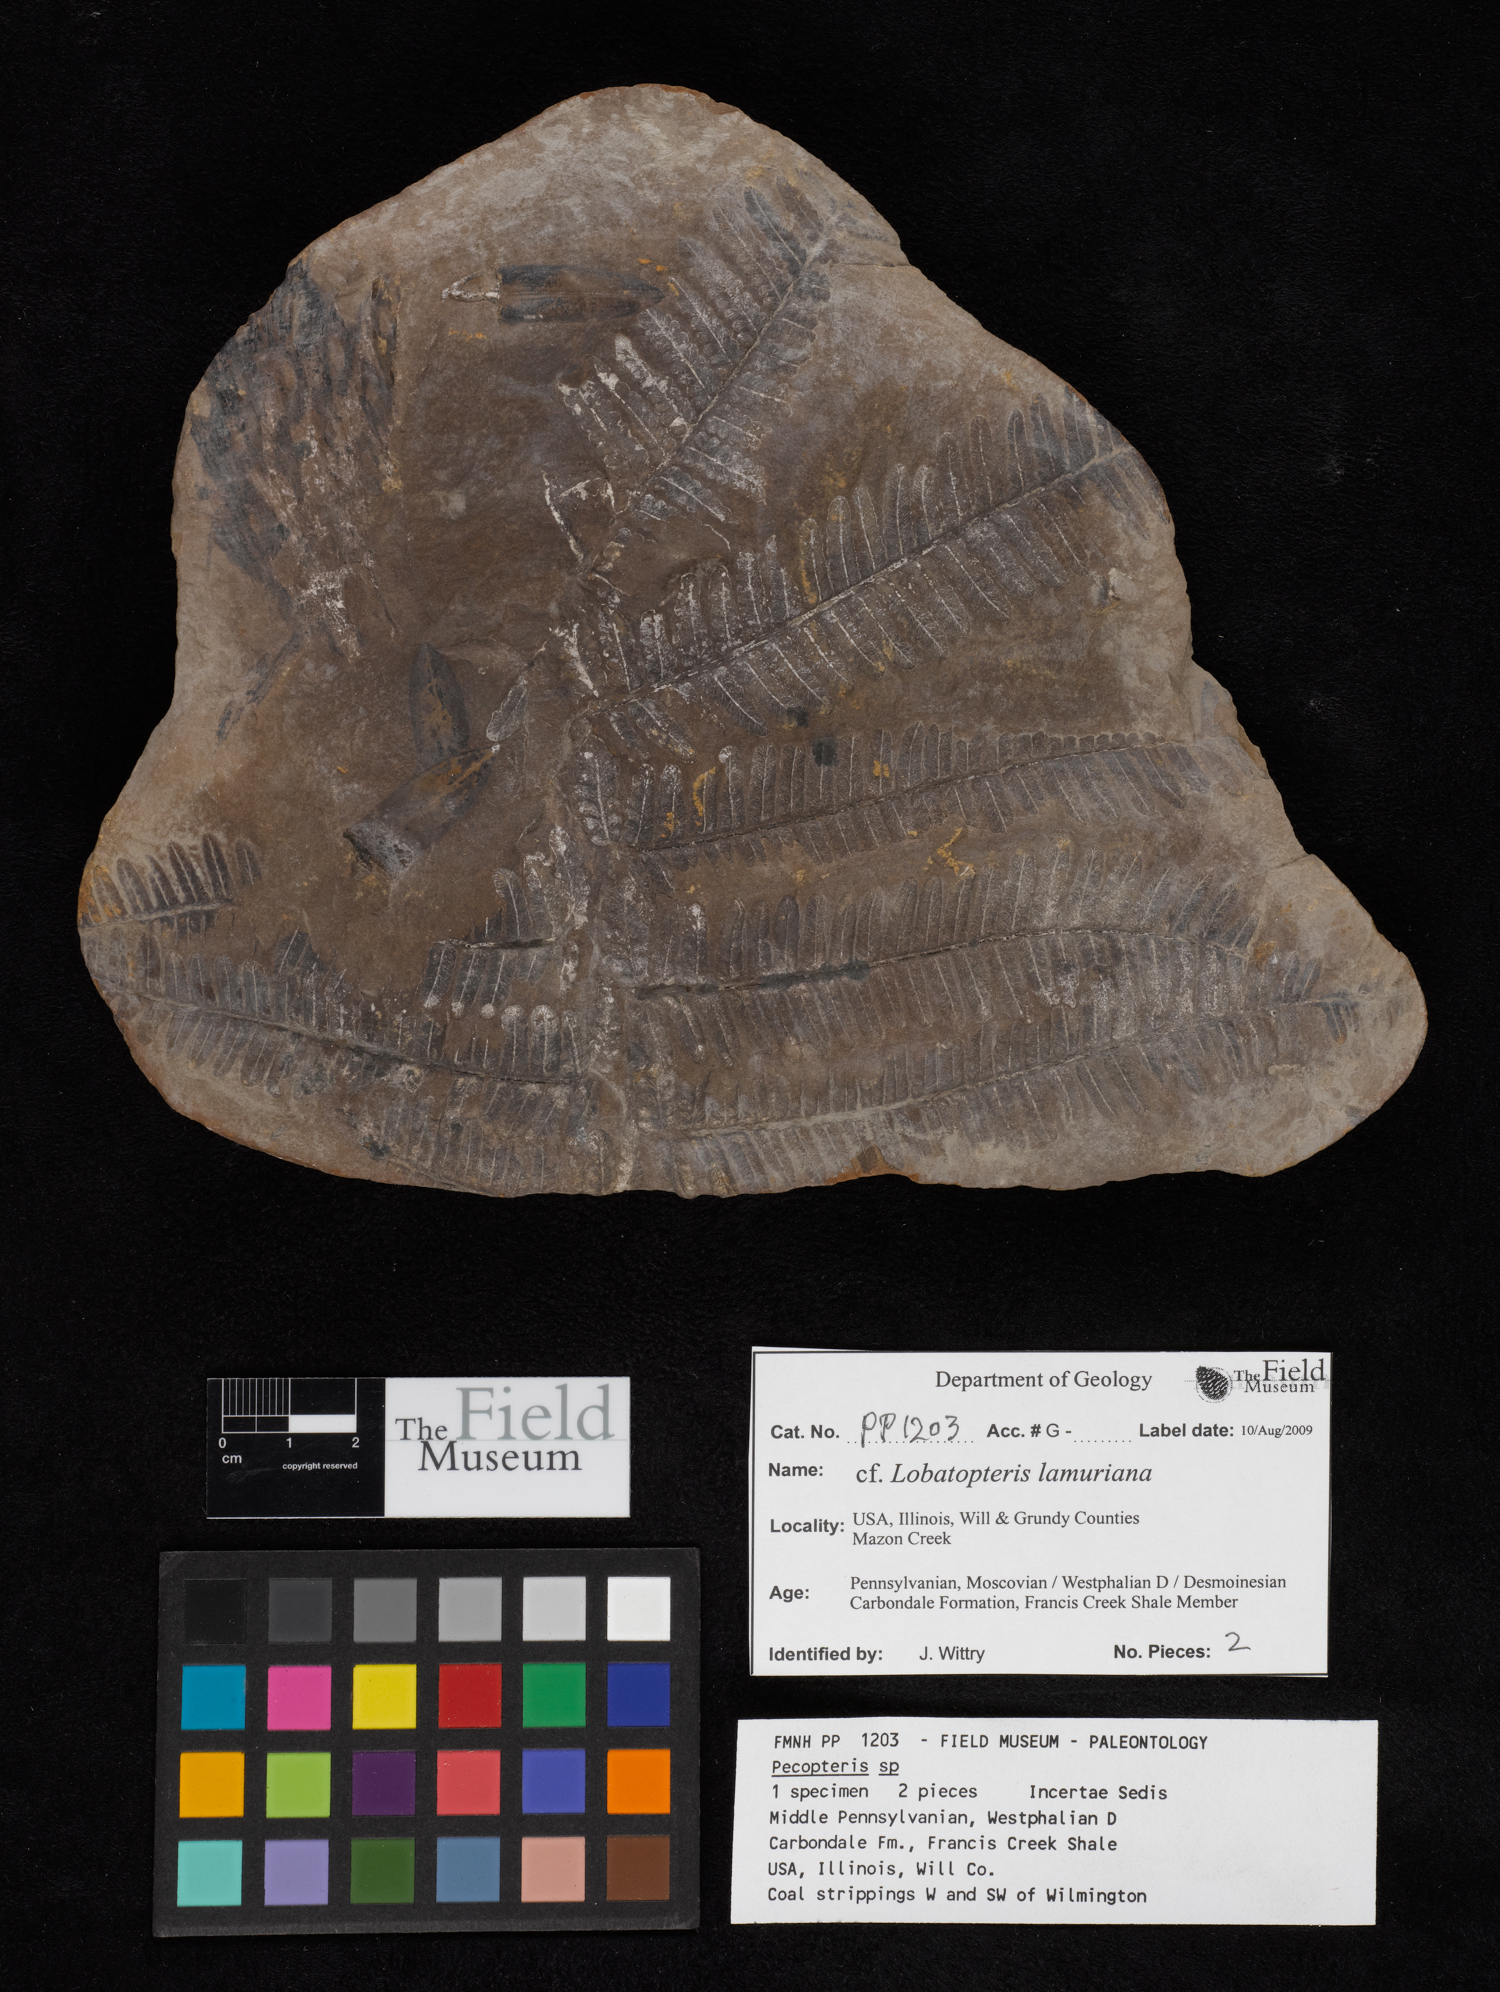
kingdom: Plantae
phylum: Tracheophyta
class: Polypodiopsida
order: Marattiales
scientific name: Marattiales
